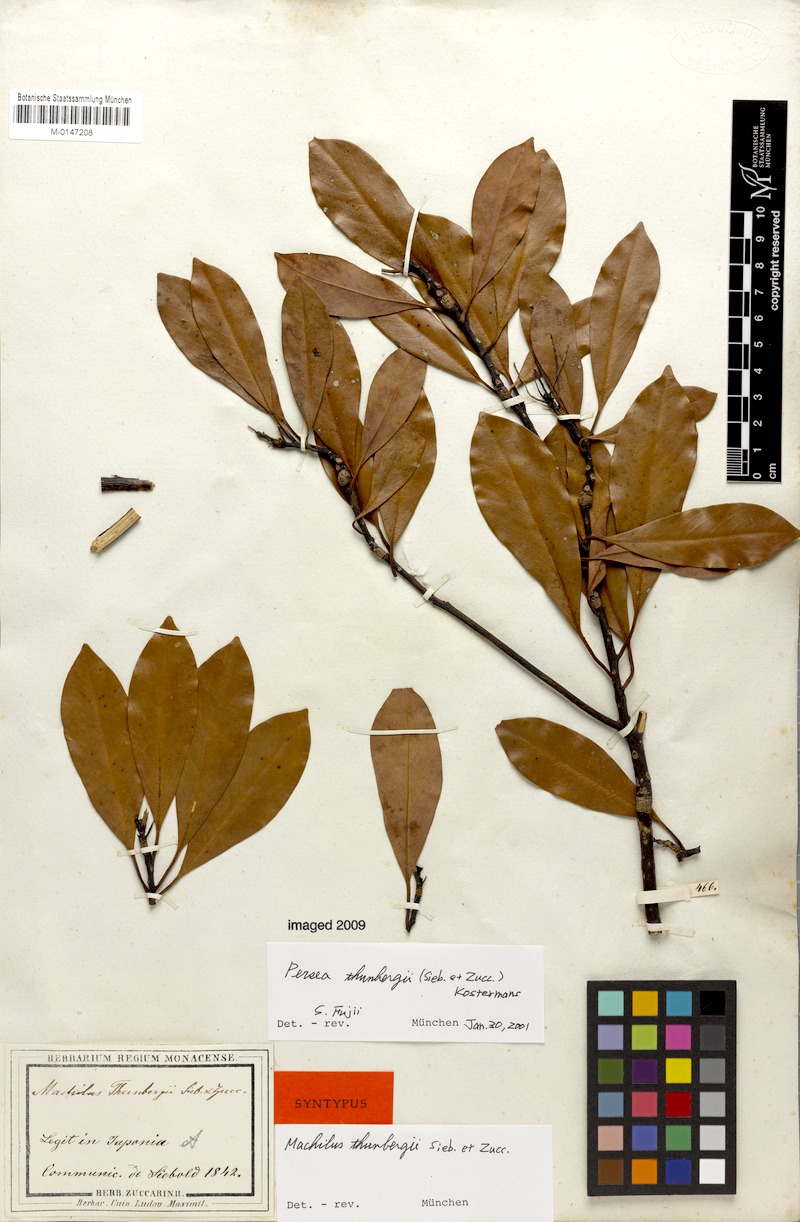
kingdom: Plantae
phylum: Tracheophyta
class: Magnoliopsida
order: Laurales
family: Lauraceae
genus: Machilus
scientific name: Machilus thunbergii
